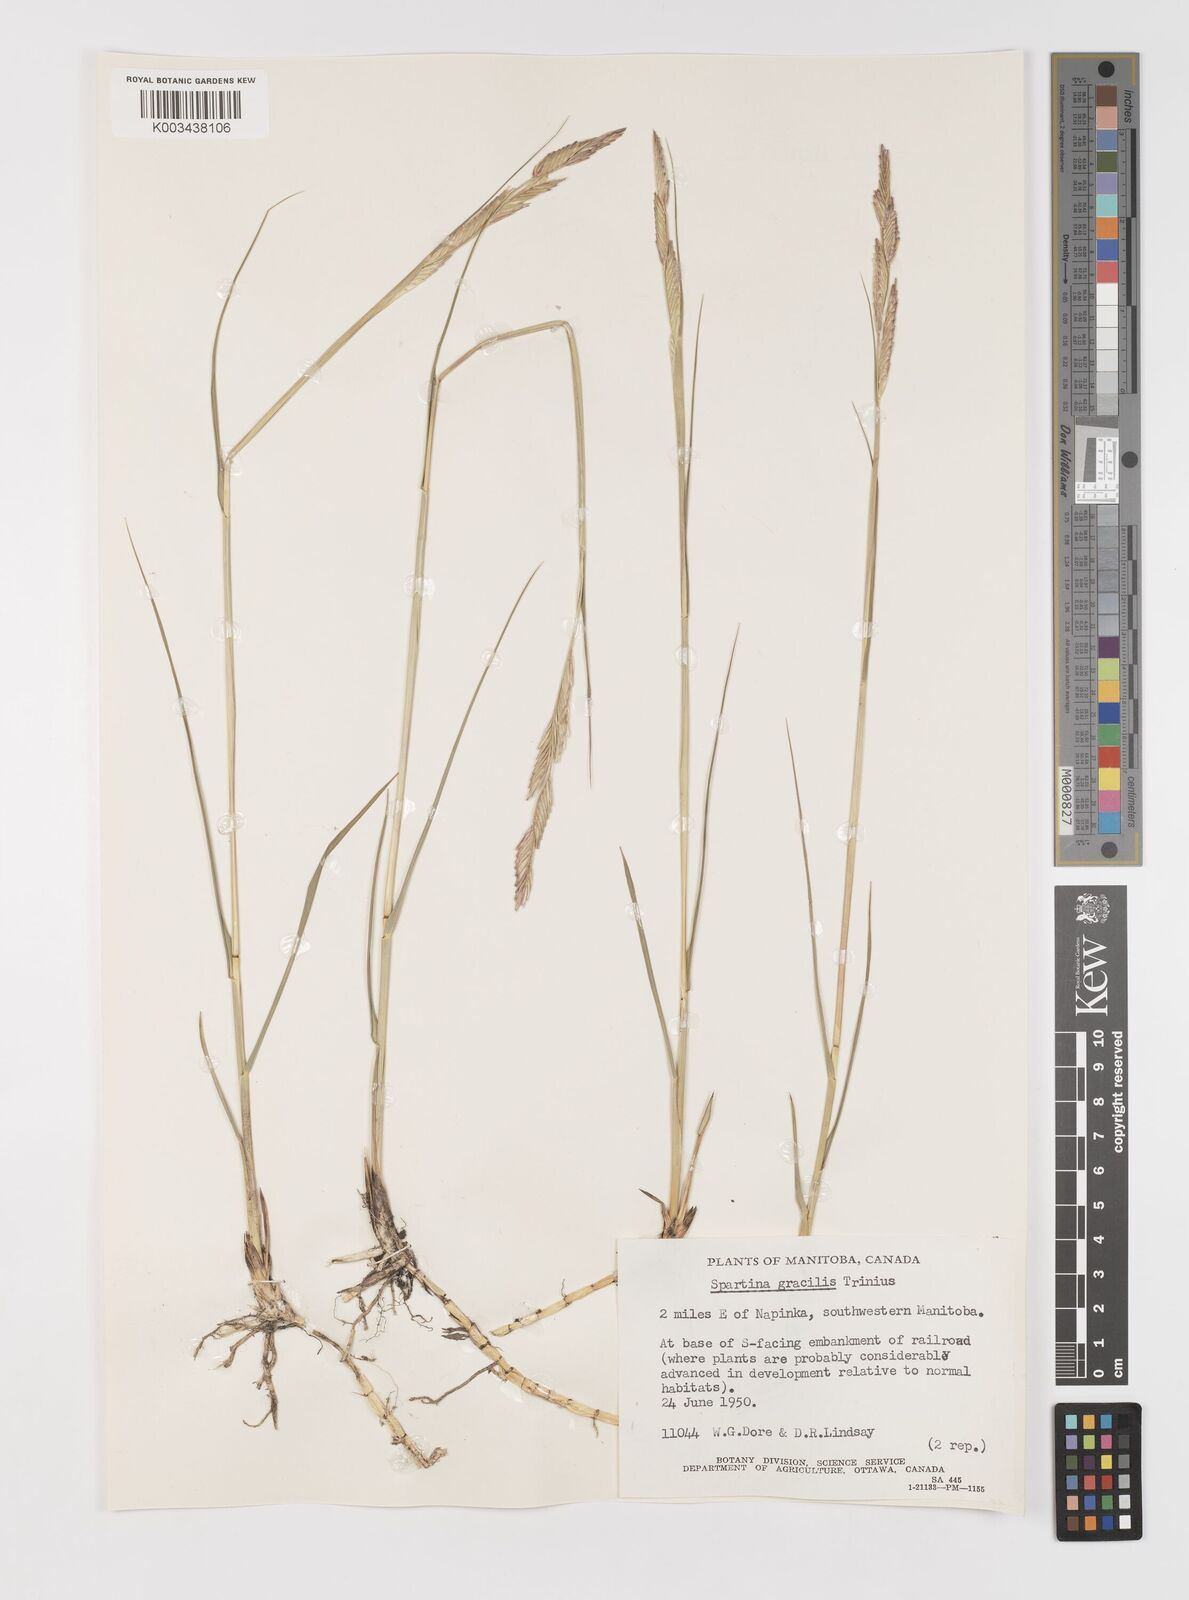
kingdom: Plantae
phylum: Tracheophyta
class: Liliopsida
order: Poales
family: Poaceae
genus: Sporobolus
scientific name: Sporobolus hookerianus
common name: Alkali cordgrass
